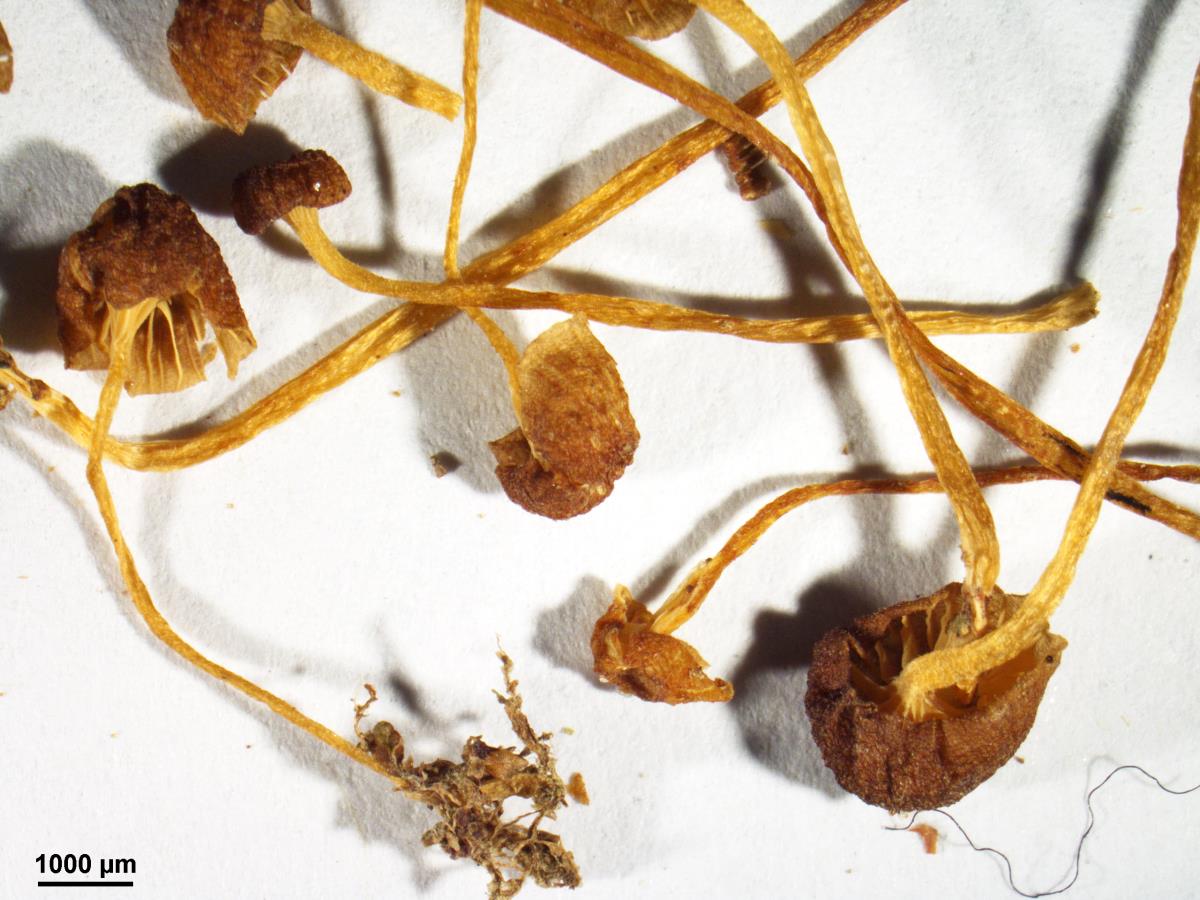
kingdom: Fungi
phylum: Basidiomycota
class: Agaricomycetes
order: Hymenochaetales
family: Rickenellaceae
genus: Rickenella
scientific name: Rickenella
